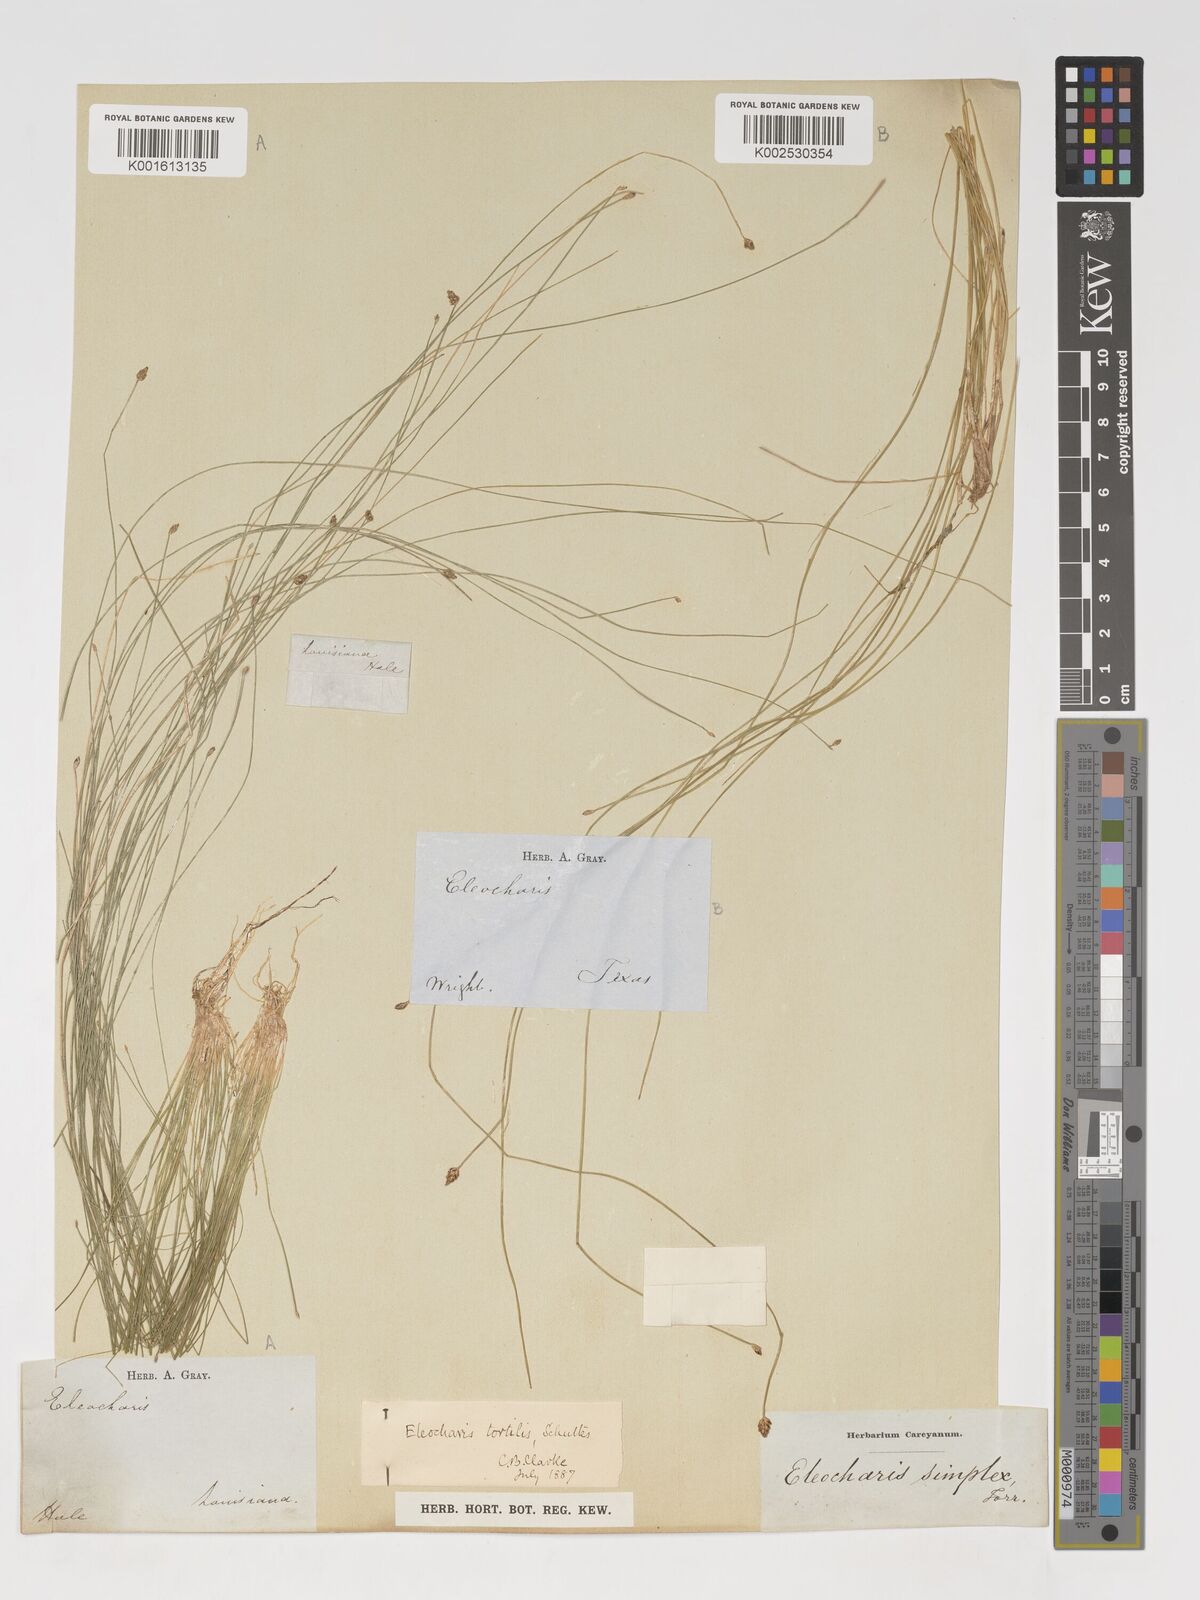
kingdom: Plantae
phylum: Tracheophyta
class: Liliopsida
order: Poales
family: Cyperaceae
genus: Eleocharis
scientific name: Eleocharis tortilis
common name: Twisted spike sedge
